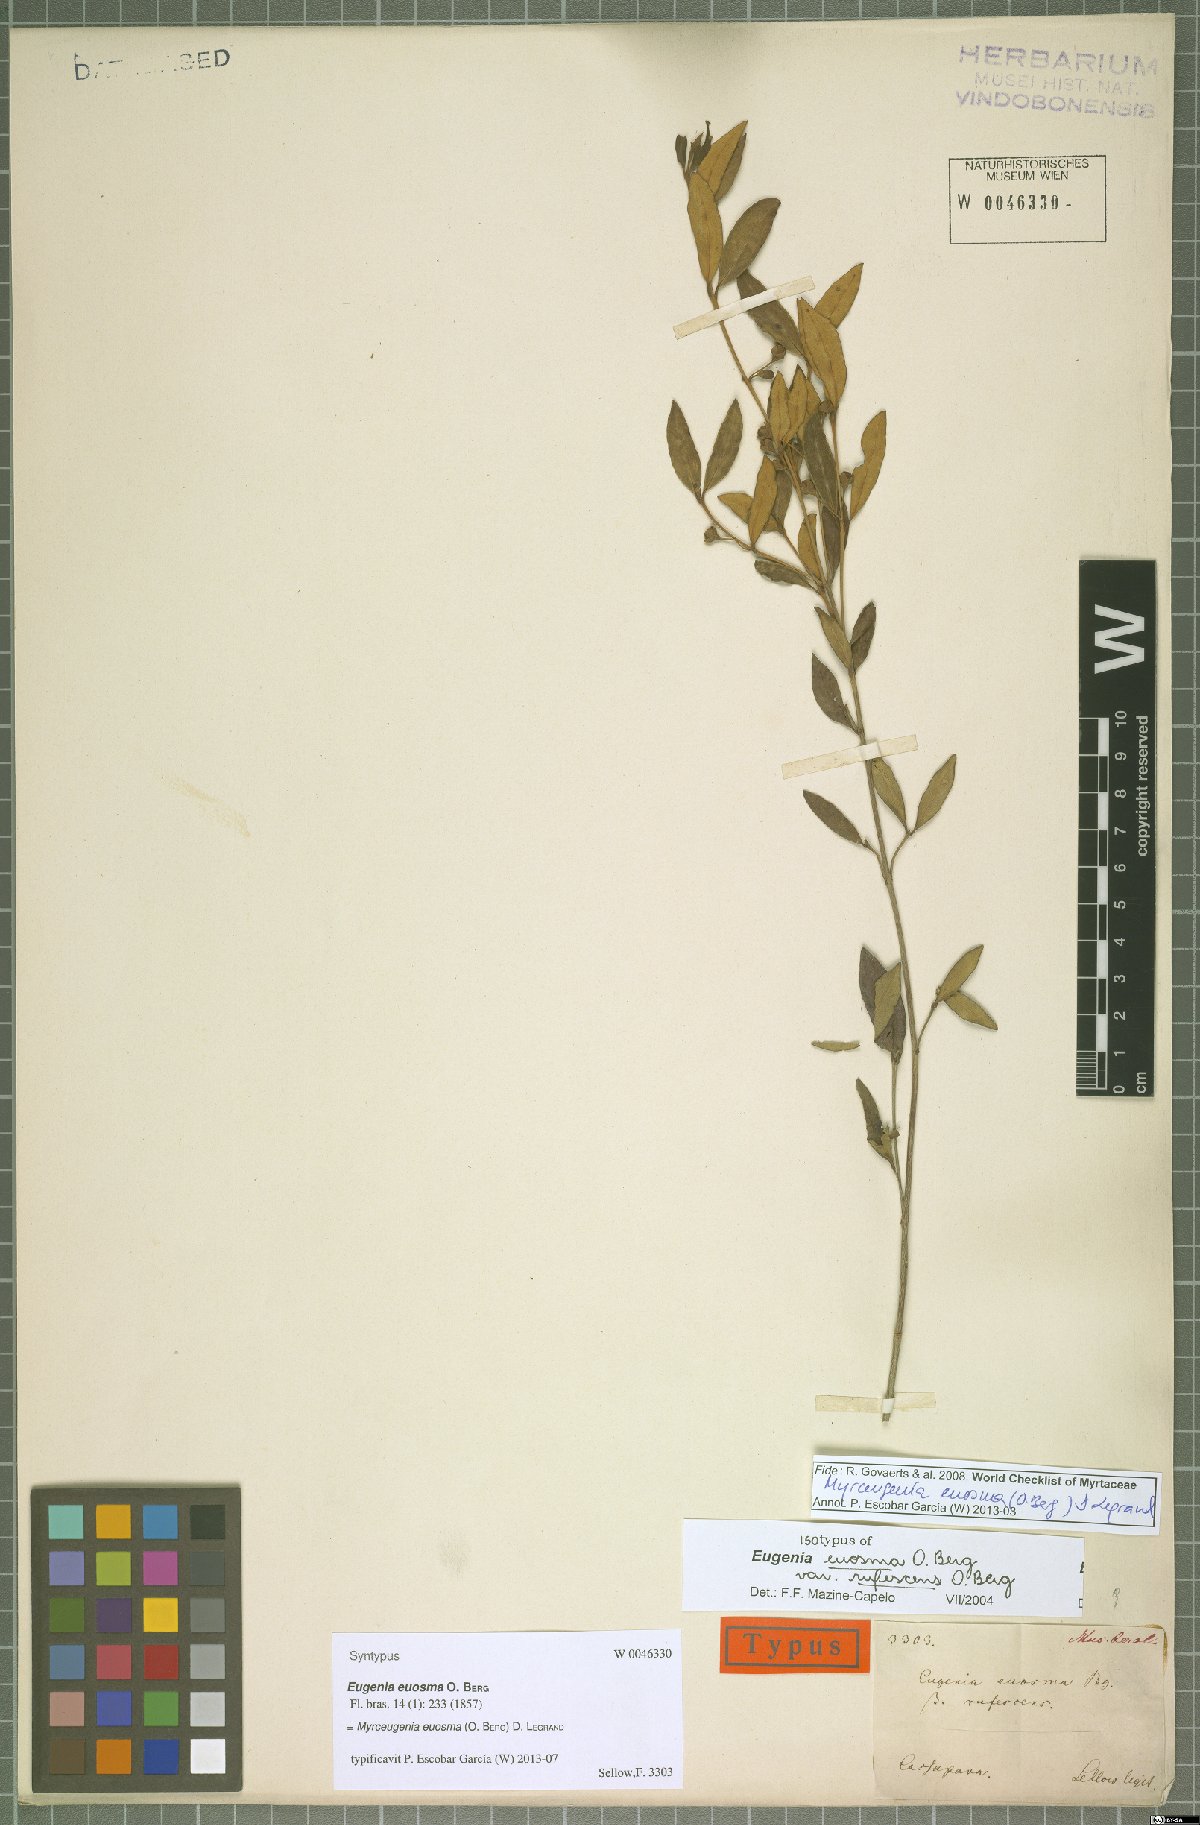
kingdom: Plantae
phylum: Tracheophyta
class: Magnoliopsida
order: Myrtales
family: Myrtaceae
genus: Myrceugenia
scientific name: Myrceugenia euosma
